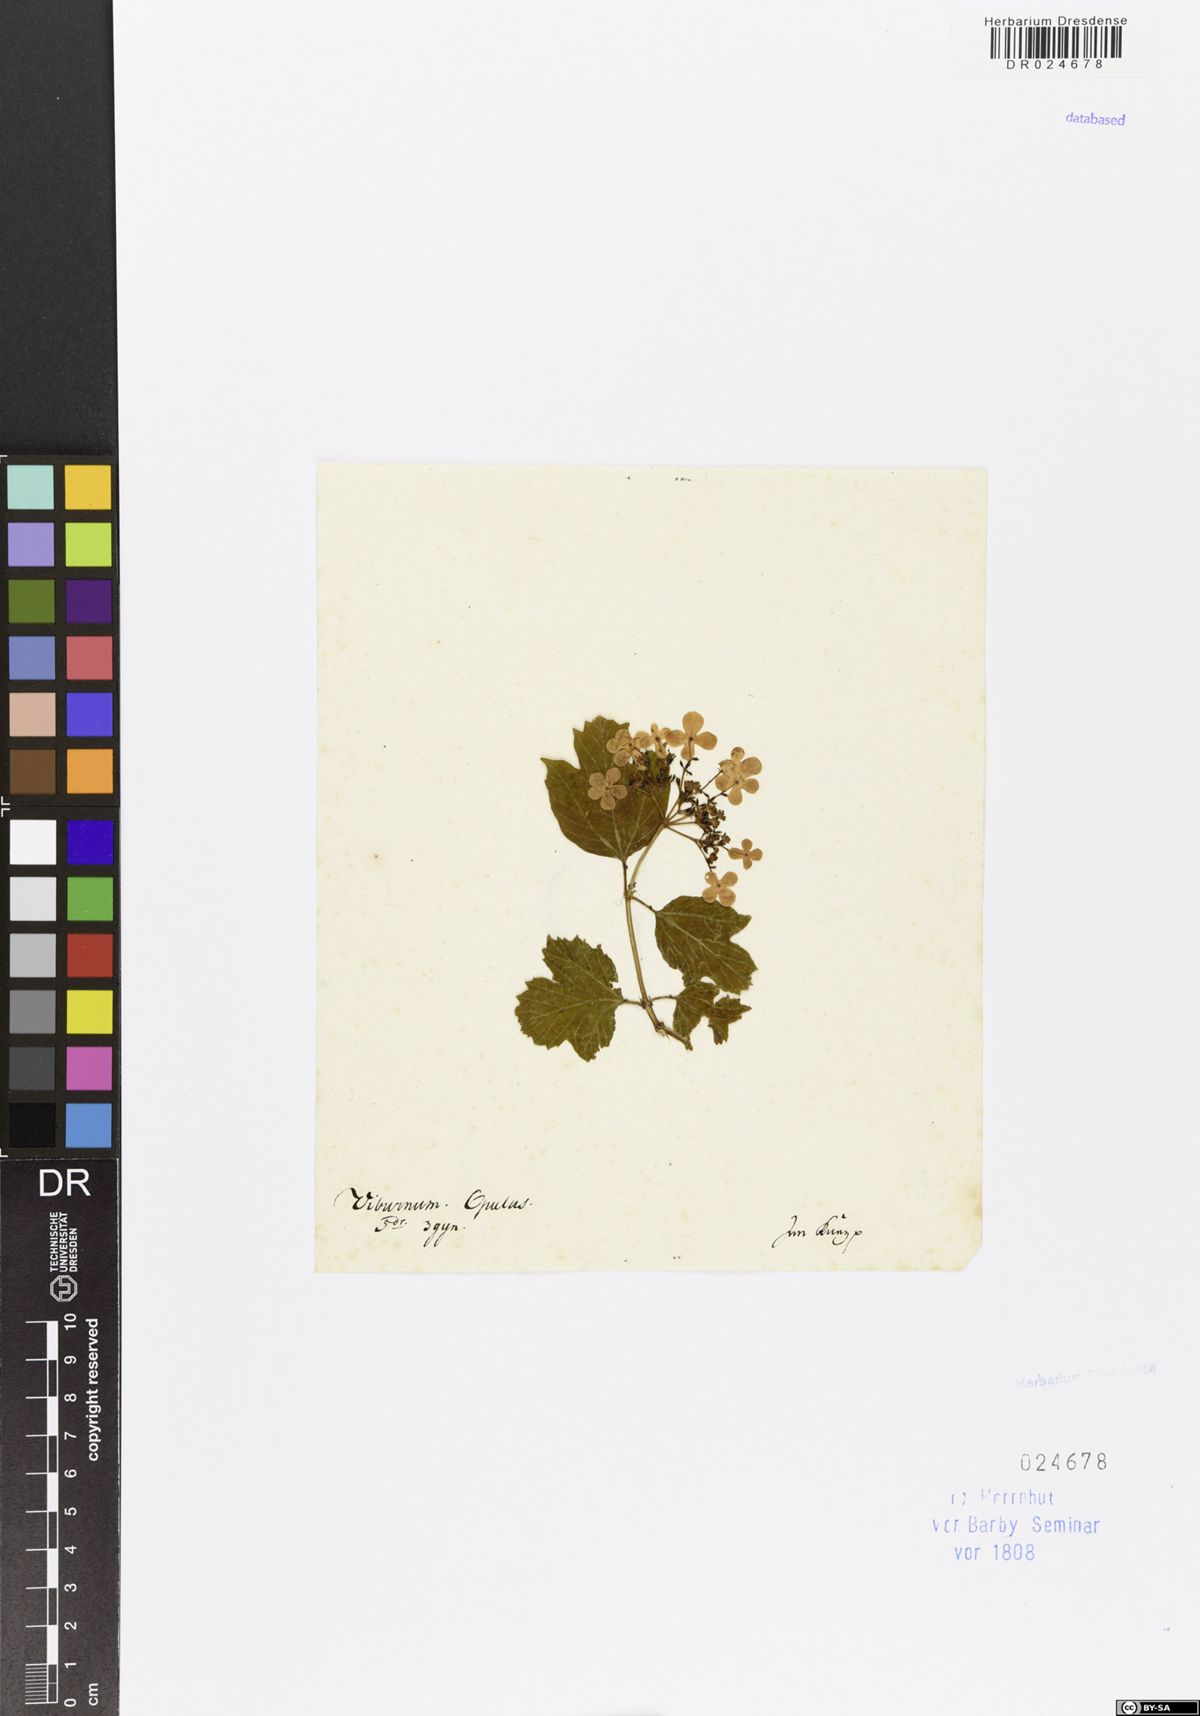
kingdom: Plantae
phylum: Tracheophyta
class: Magnoliopsida
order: Dipsacales
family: Viburnaceae
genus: Viburnum
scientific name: Viburnum opulus
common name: Guelder-rose
